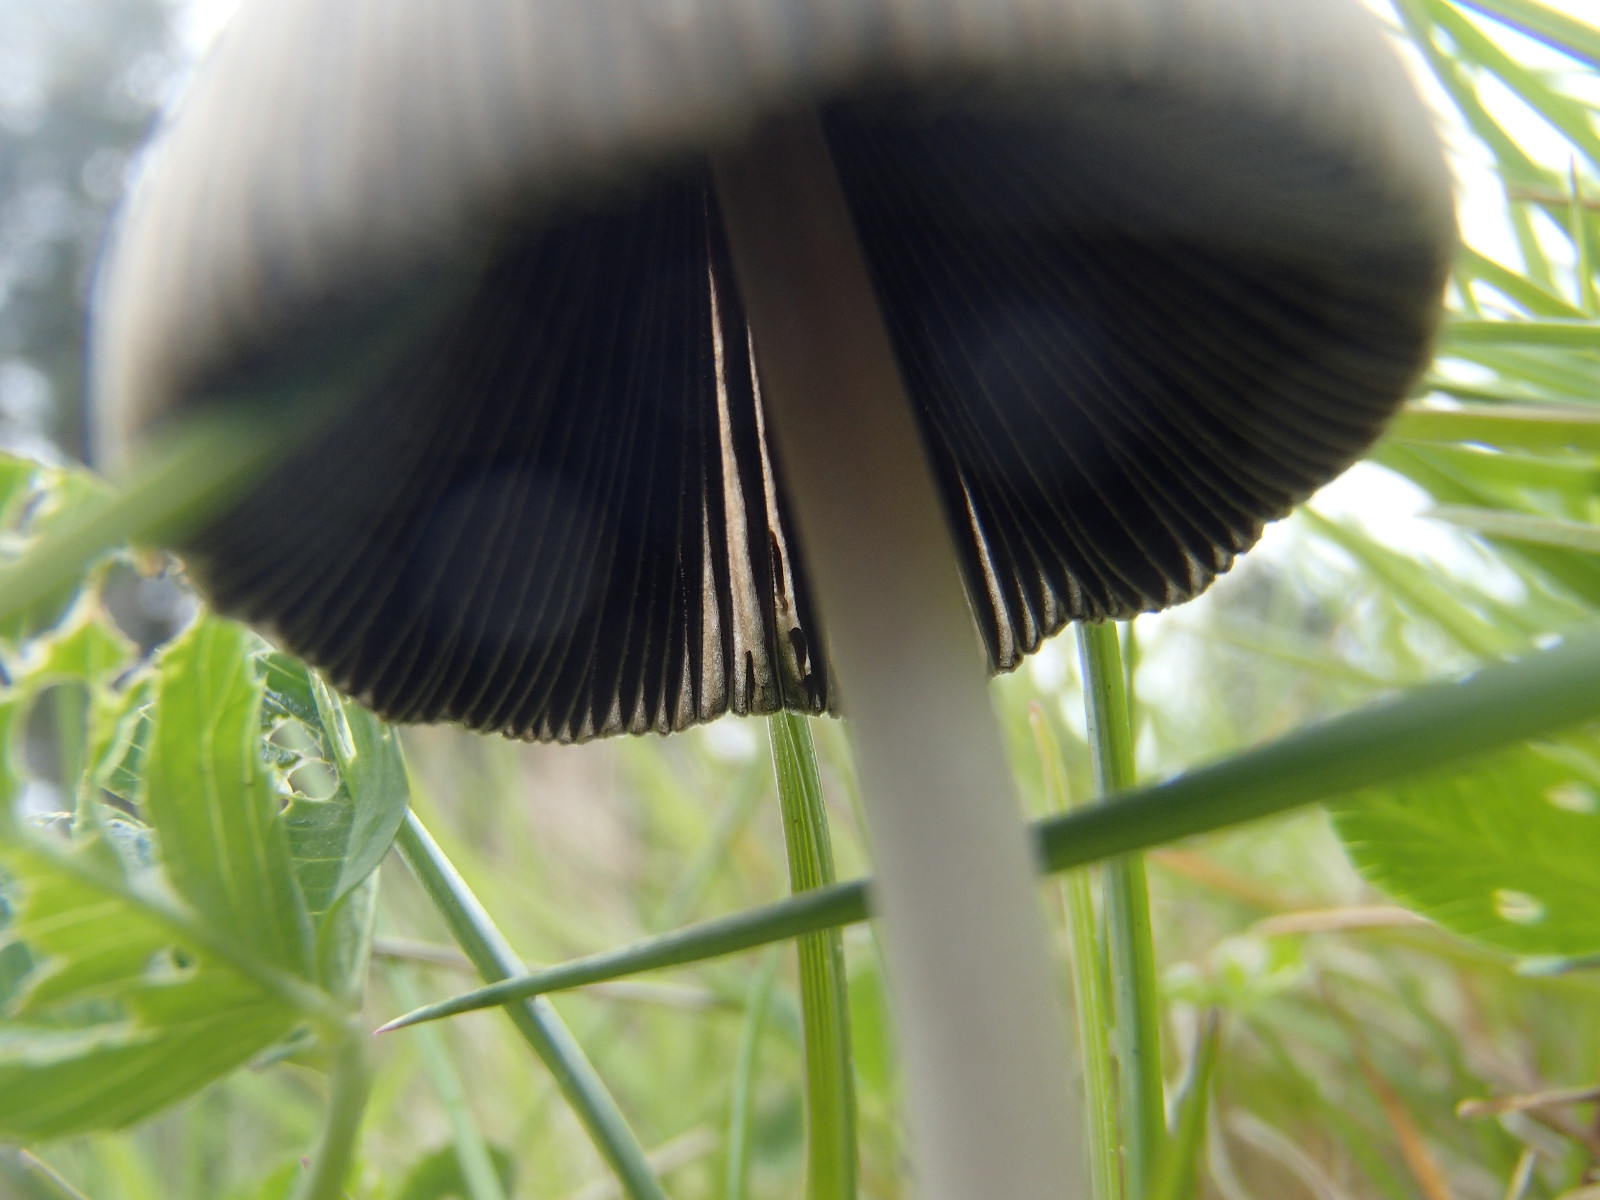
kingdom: Fungi
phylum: Basidiomycota
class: Agaricomycetes
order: Agaricales
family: Psathyrellaceae
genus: Parasola
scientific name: Parasola
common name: hjulhat
